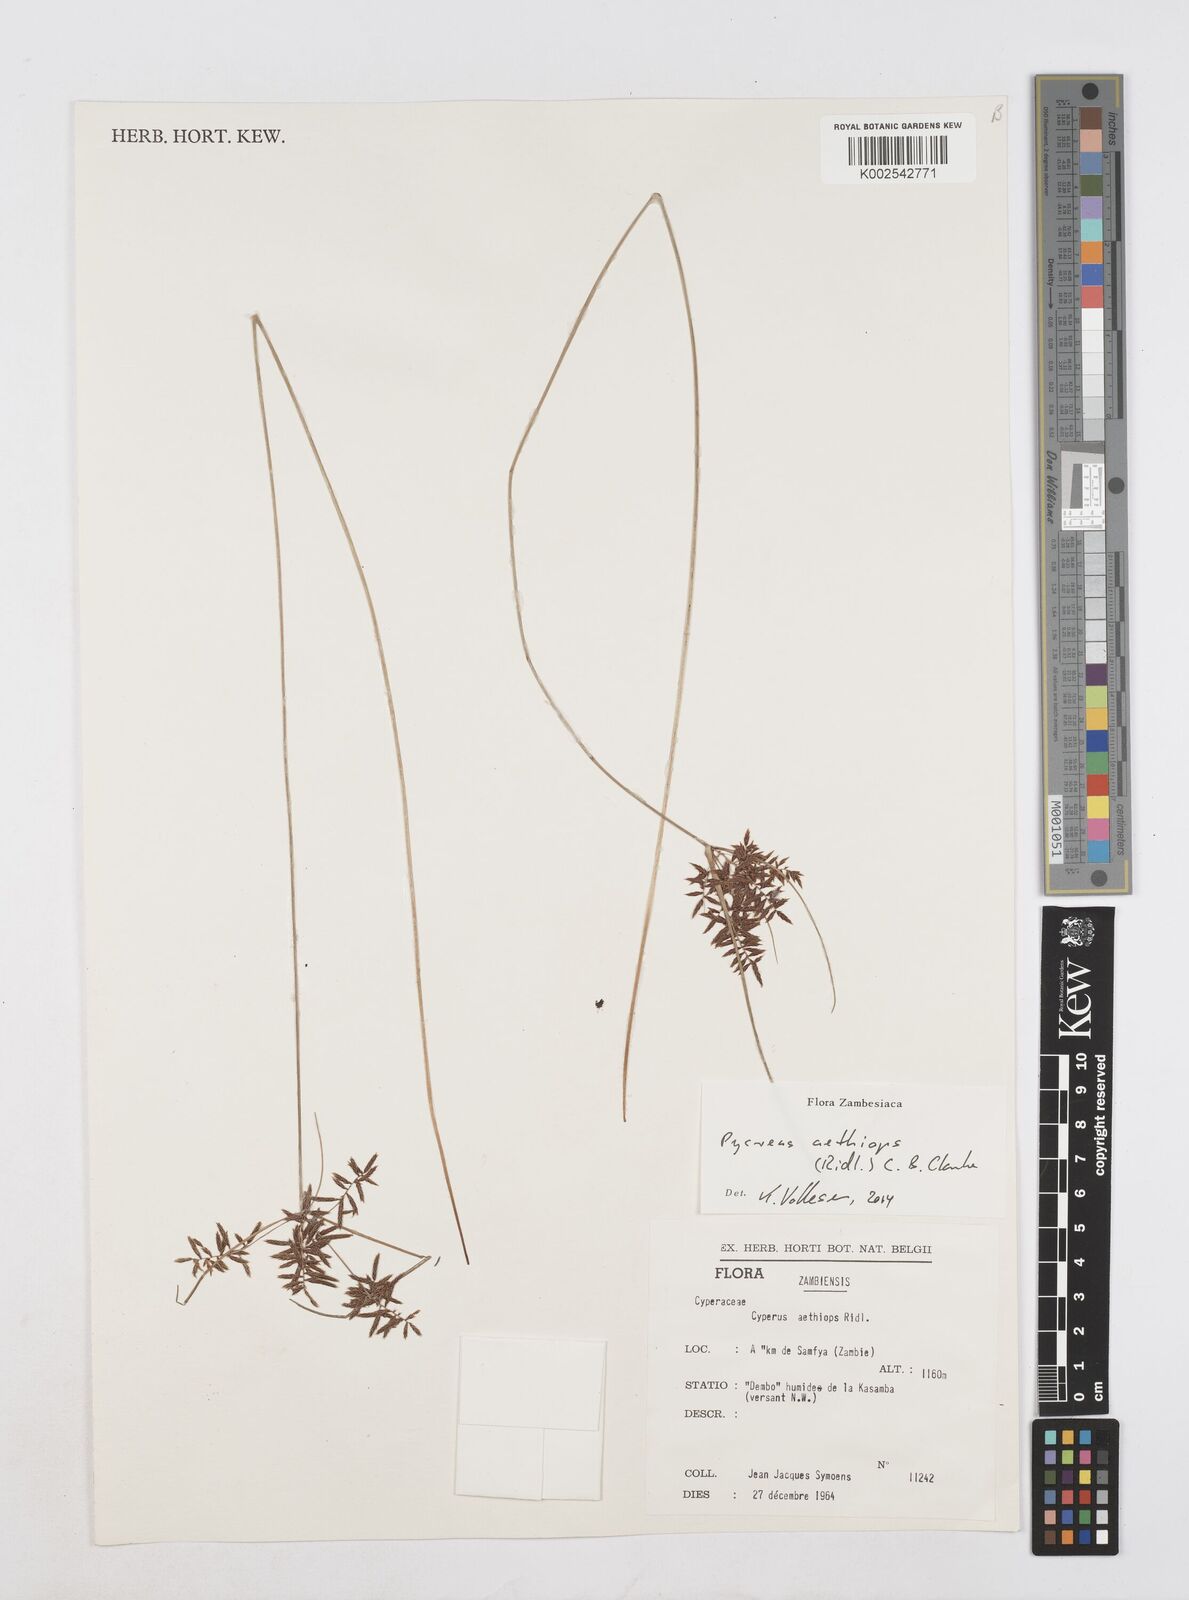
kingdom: Plantae
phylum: Tracheophyta
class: Liliopsida
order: Poales
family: Cyperaceae
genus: Cyperus
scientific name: Cyperus aethiops
